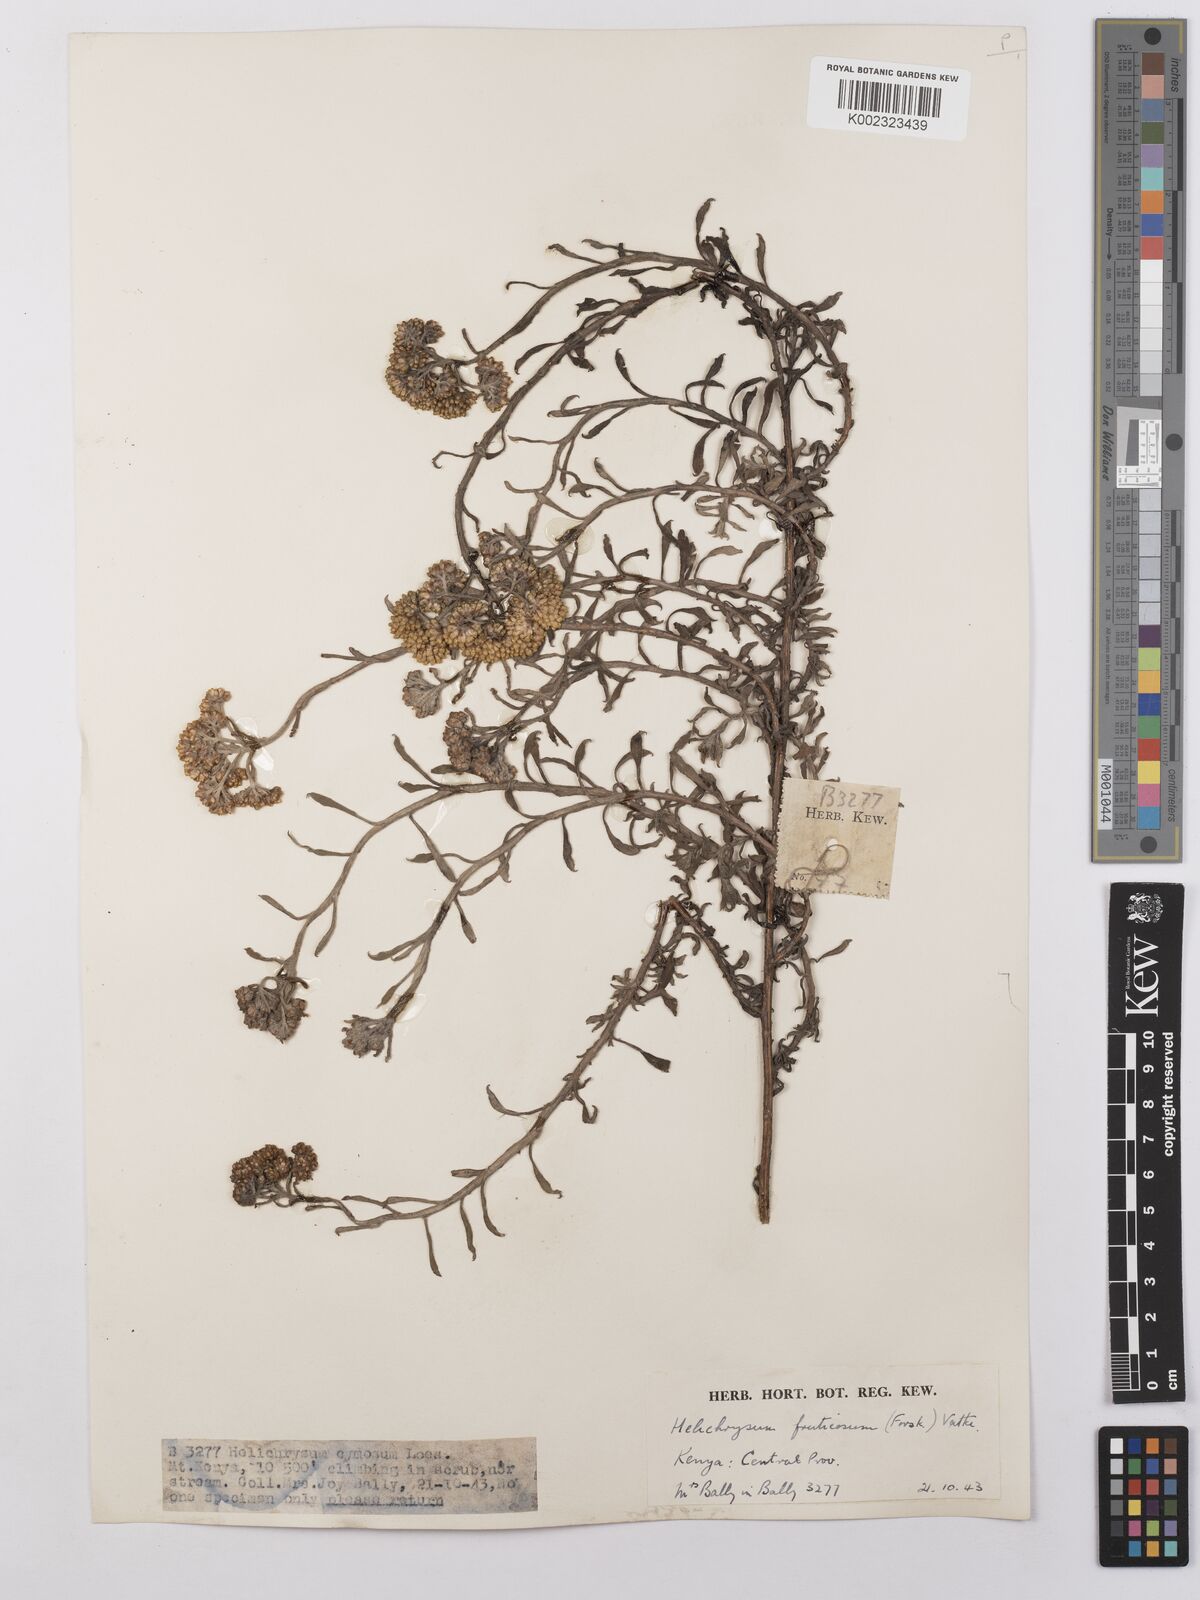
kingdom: Plantae
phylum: Tracheophyta
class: Magnoliopsida
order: Asterales
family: Asteraceae
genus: Helichrysum
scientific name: Helichrysum forskahlii
